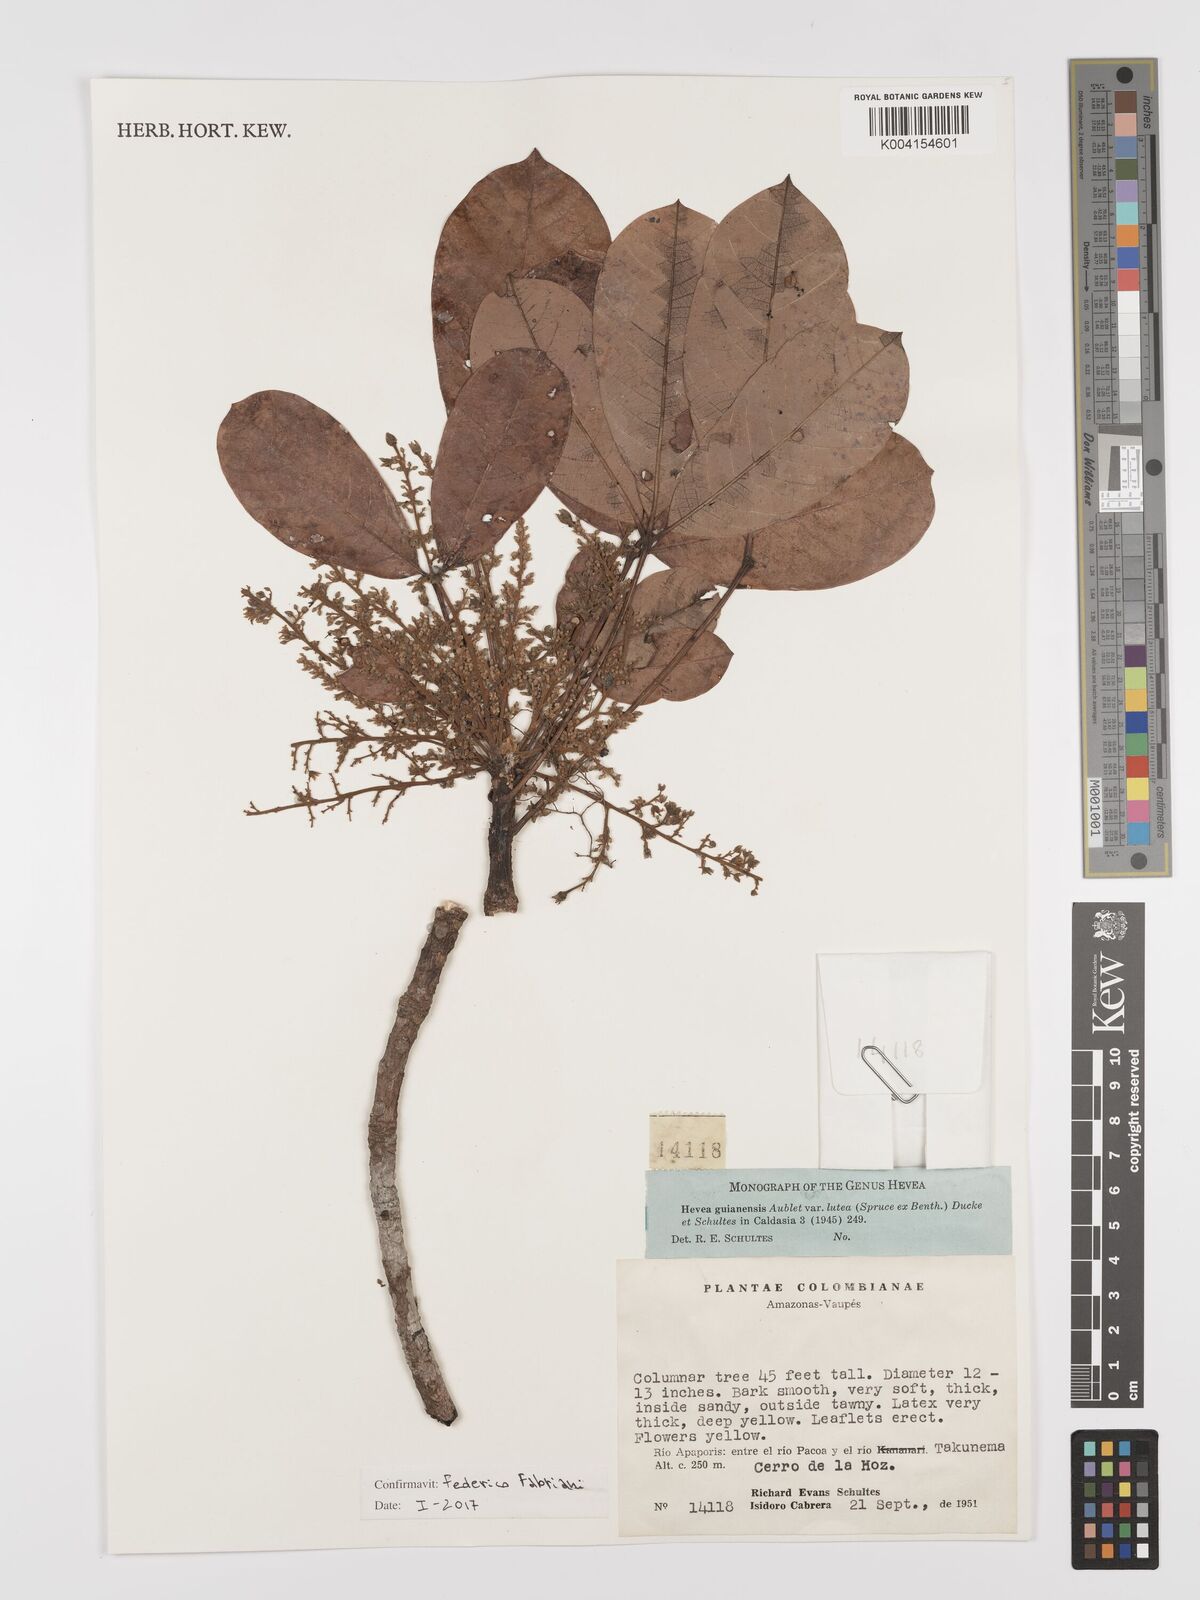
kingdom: Plantae
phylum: Tracheophyta
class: Magnoliopsida
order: Malpighiales
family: Euphorbiaceae
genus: Hevea
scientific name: Hevea guianensis
